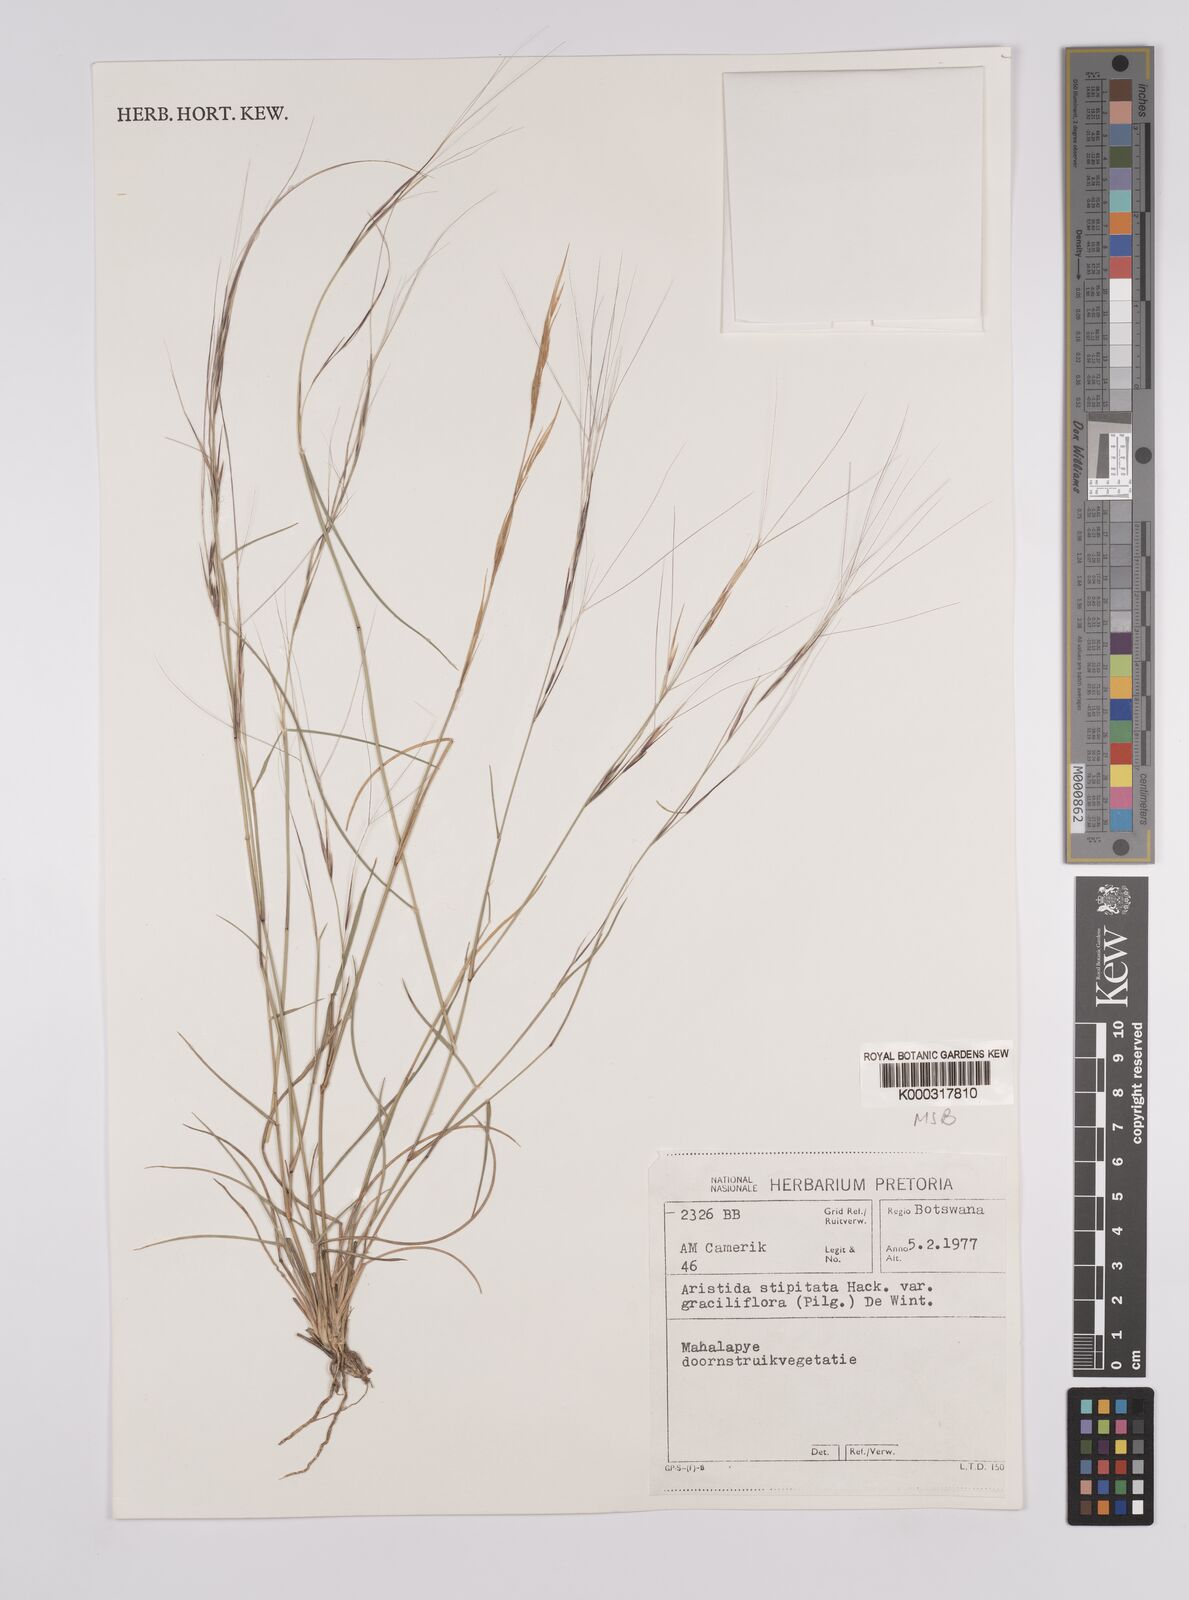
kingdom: Plantae
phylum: Tracheophyta
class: Liliopsida
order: Poales
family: Poaceae
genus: Aristida
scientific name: Aristida stipitata
